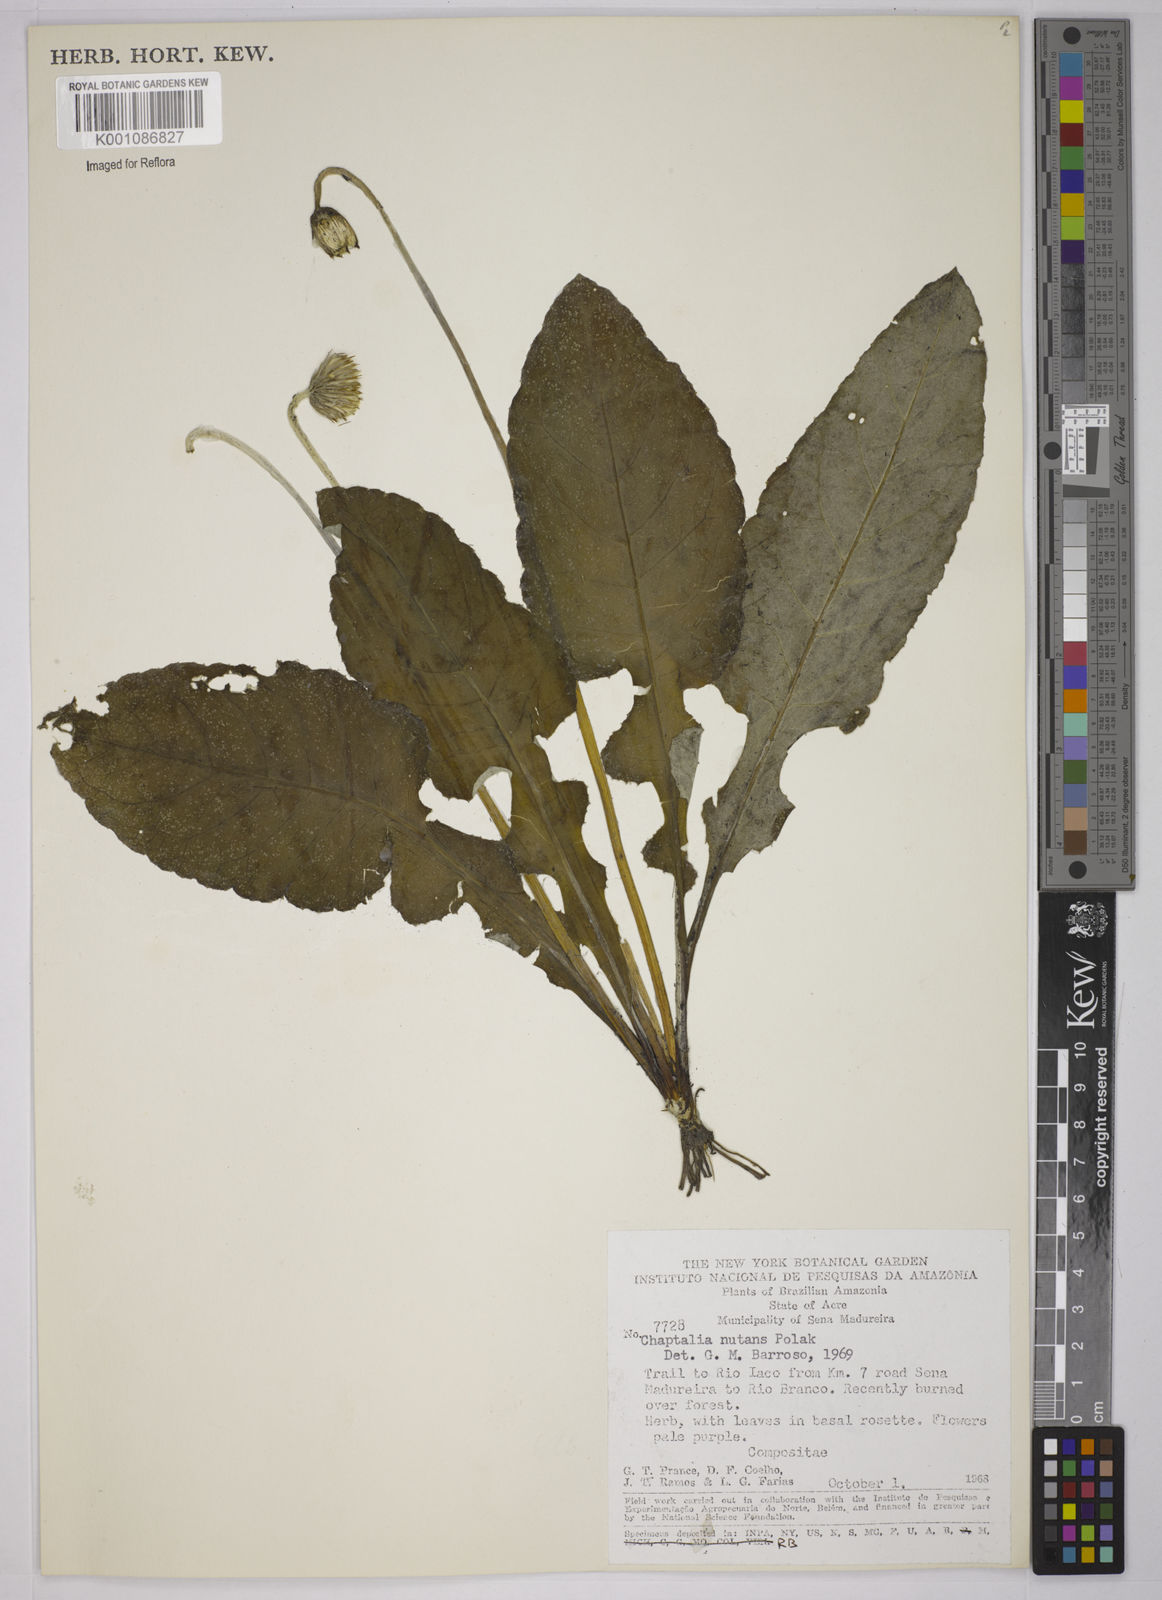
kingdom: Plantae
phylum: Tracheophyta
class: Magnoliopsida
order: Asterales
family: Asteraceae
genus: Chaptalia
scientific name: Chaptalia nutans
